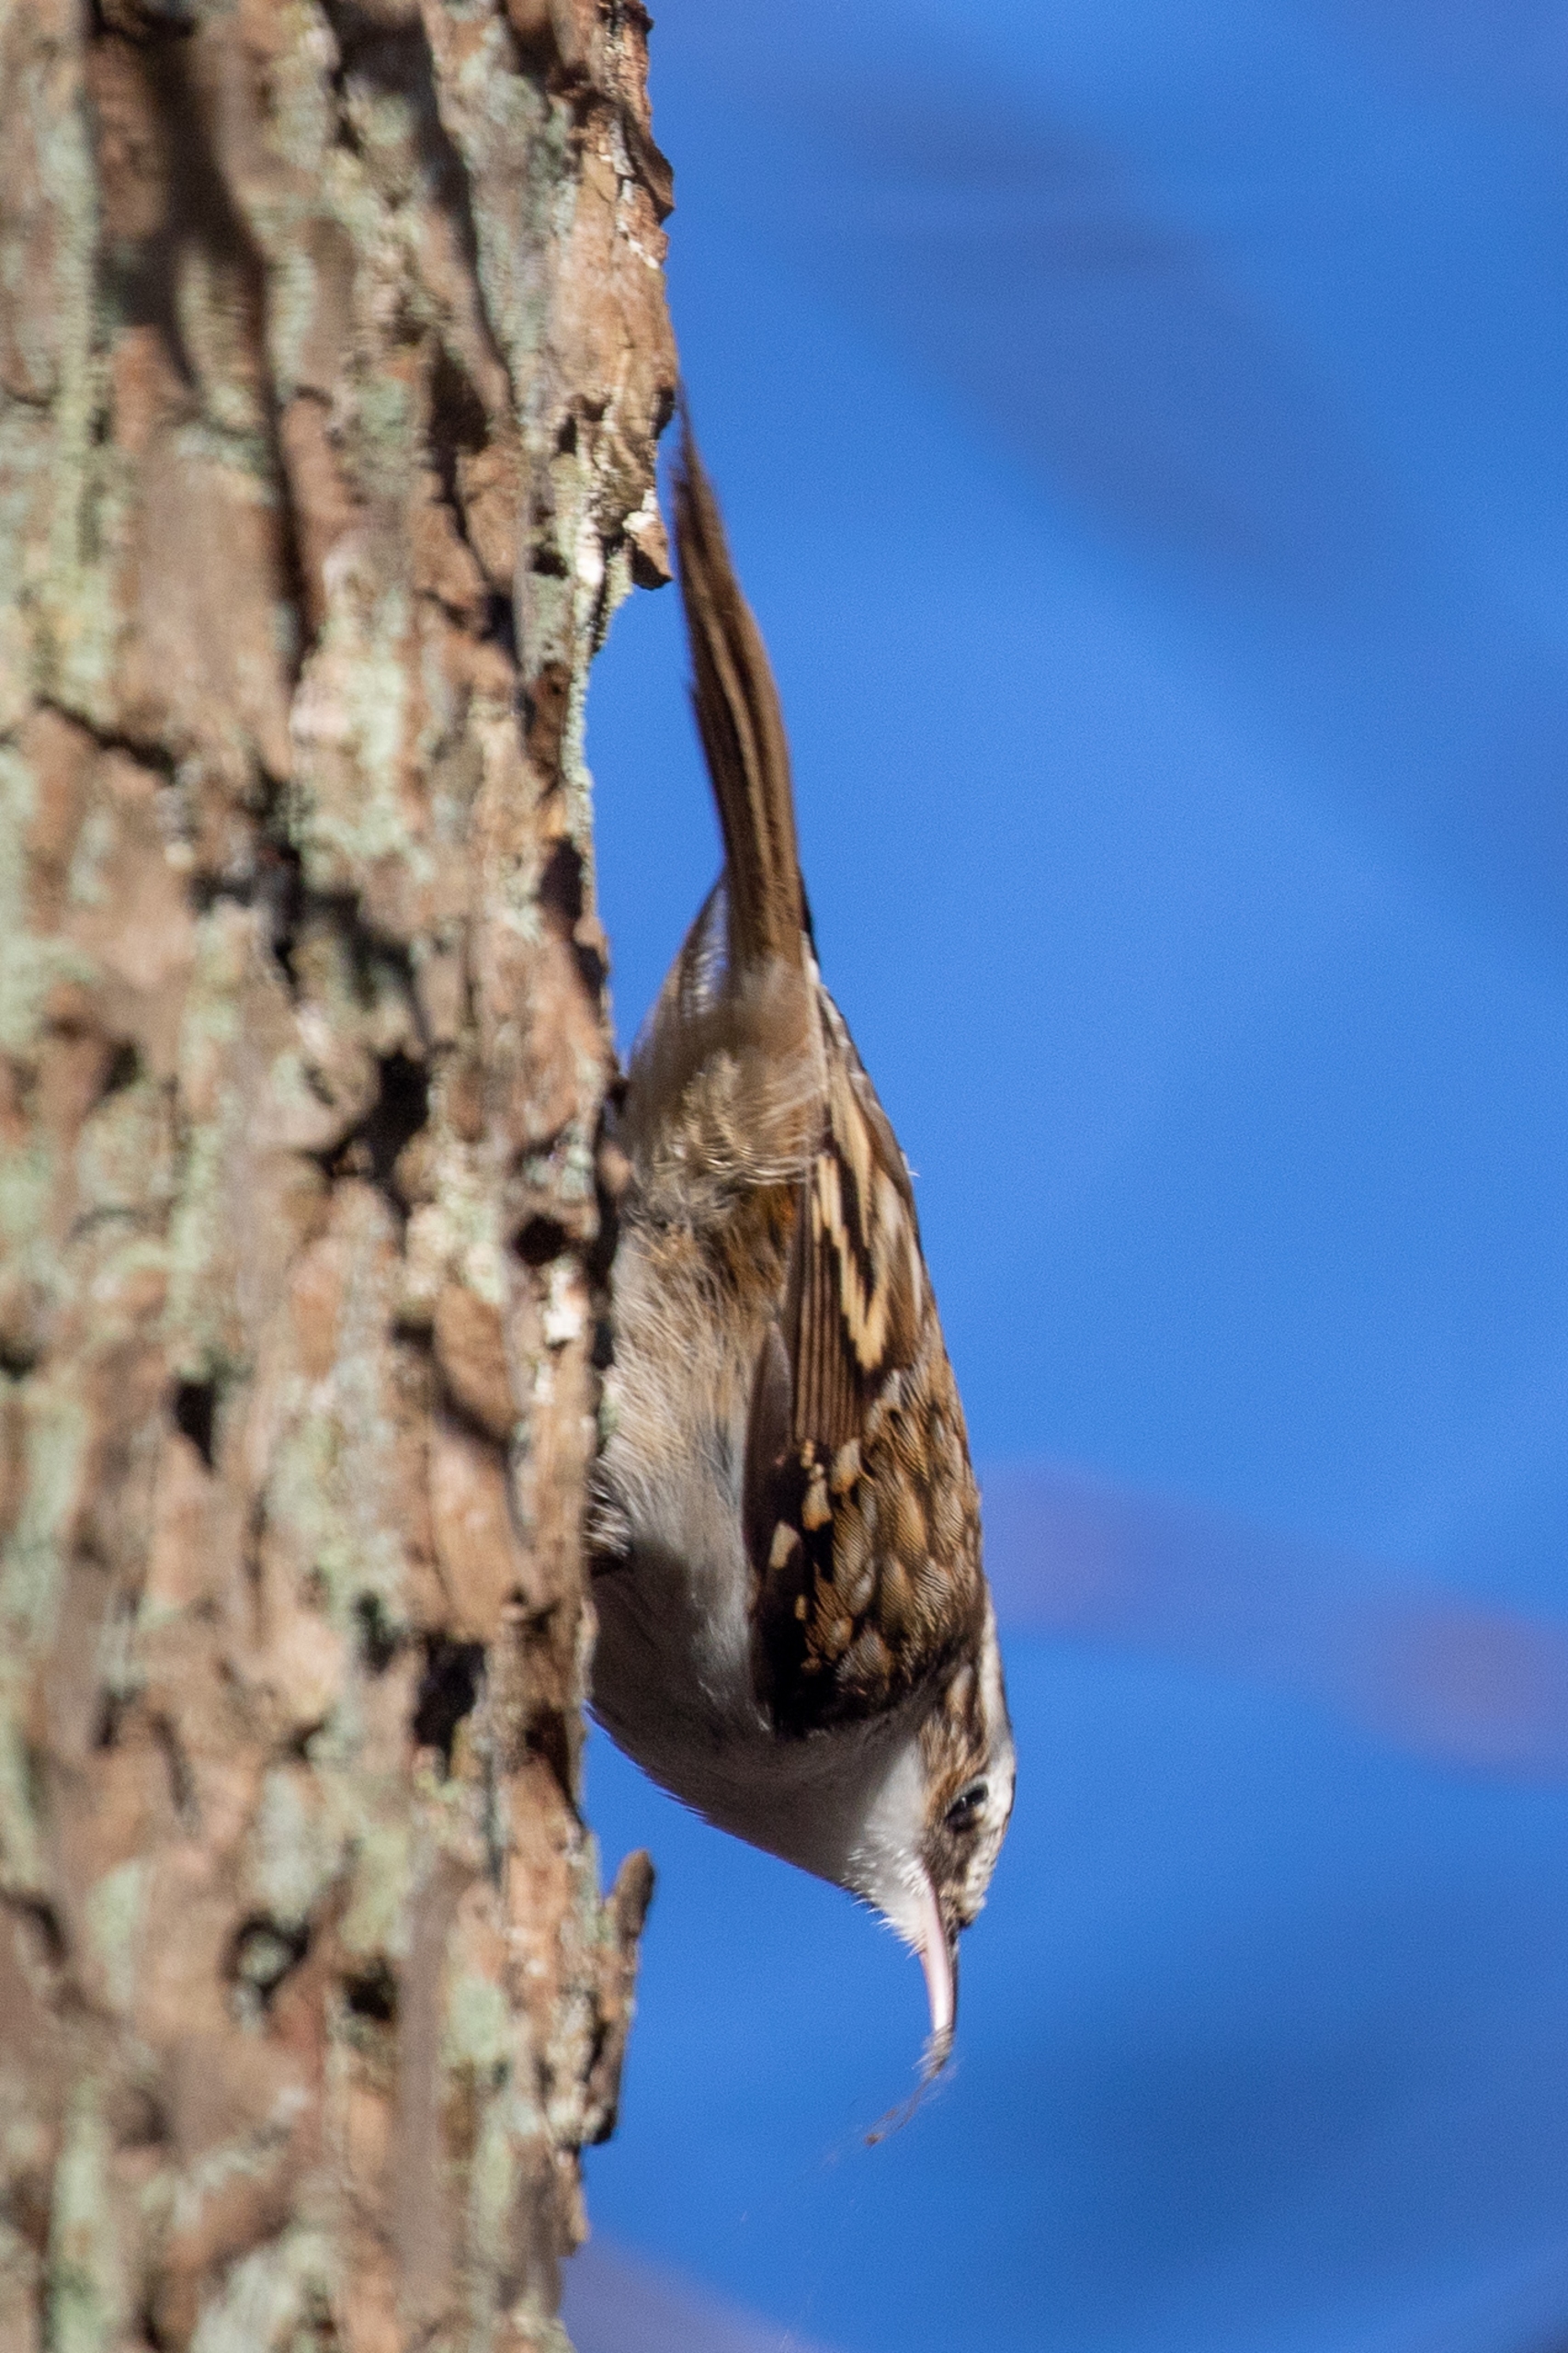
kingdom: Animalia
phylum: Chordata
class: Aves
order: Passeriformes
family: Certhiidae
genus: Certhia
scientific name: Certhia brachydactyla
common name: Korttået træløber
